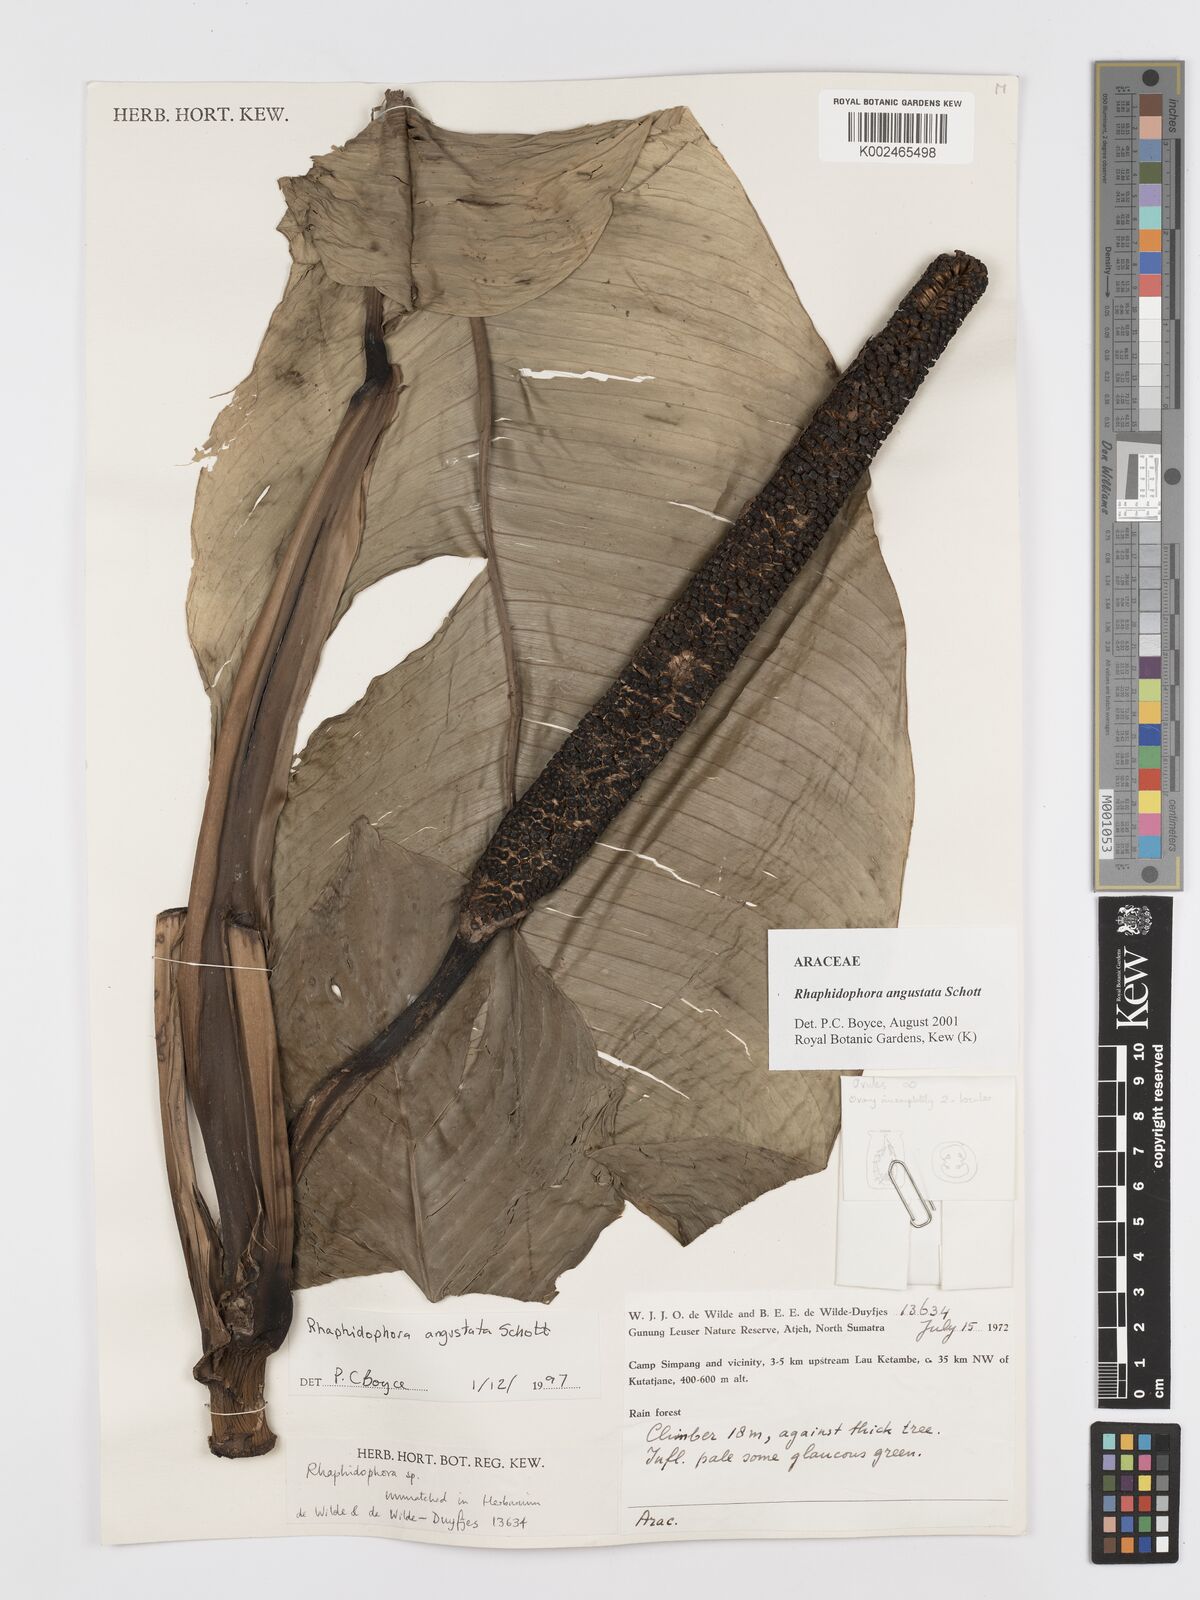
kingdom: Plantae
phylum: Tracheophyta
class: Liliopsida
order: Alismatales
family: Araceae
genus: Rhaphidophora
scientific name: Rhaphidophora angustata
